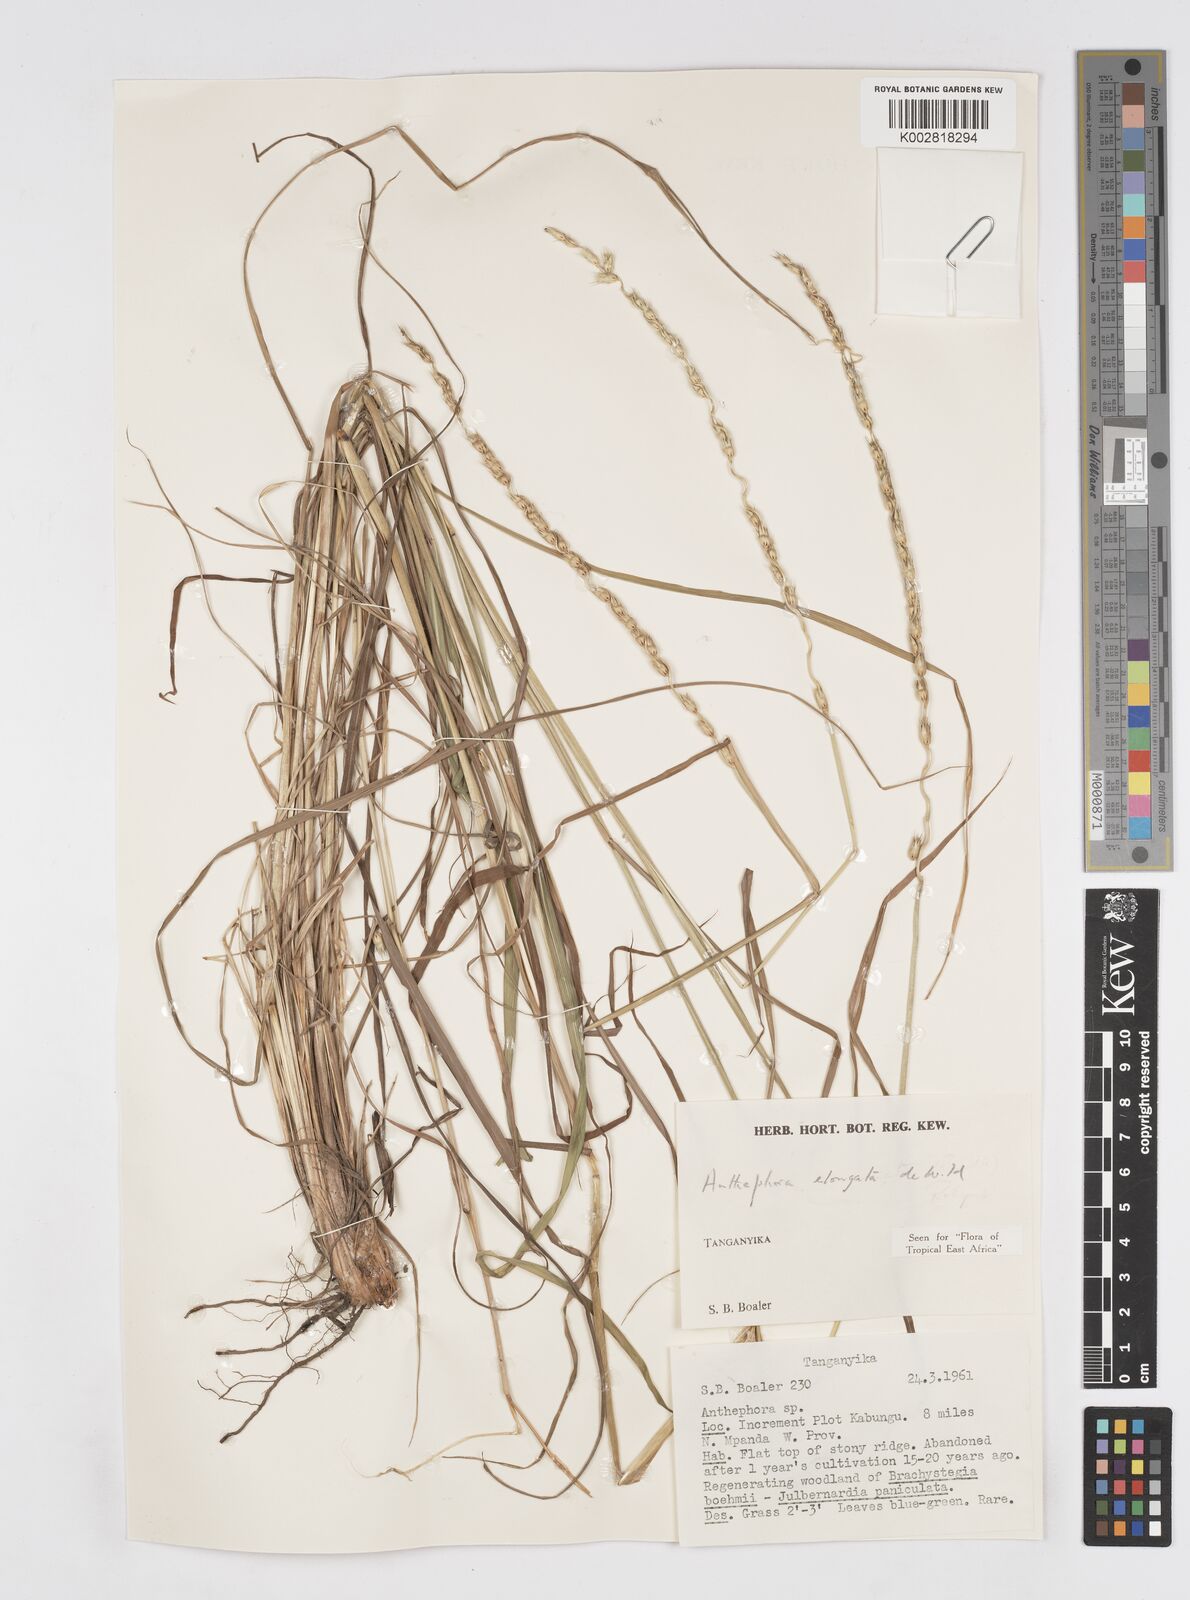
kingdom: Plantae
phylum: Tracheophyta
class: Liliopsida
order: Poales
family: Poaceae
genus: Anthephora
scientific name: Anthephora elongata
